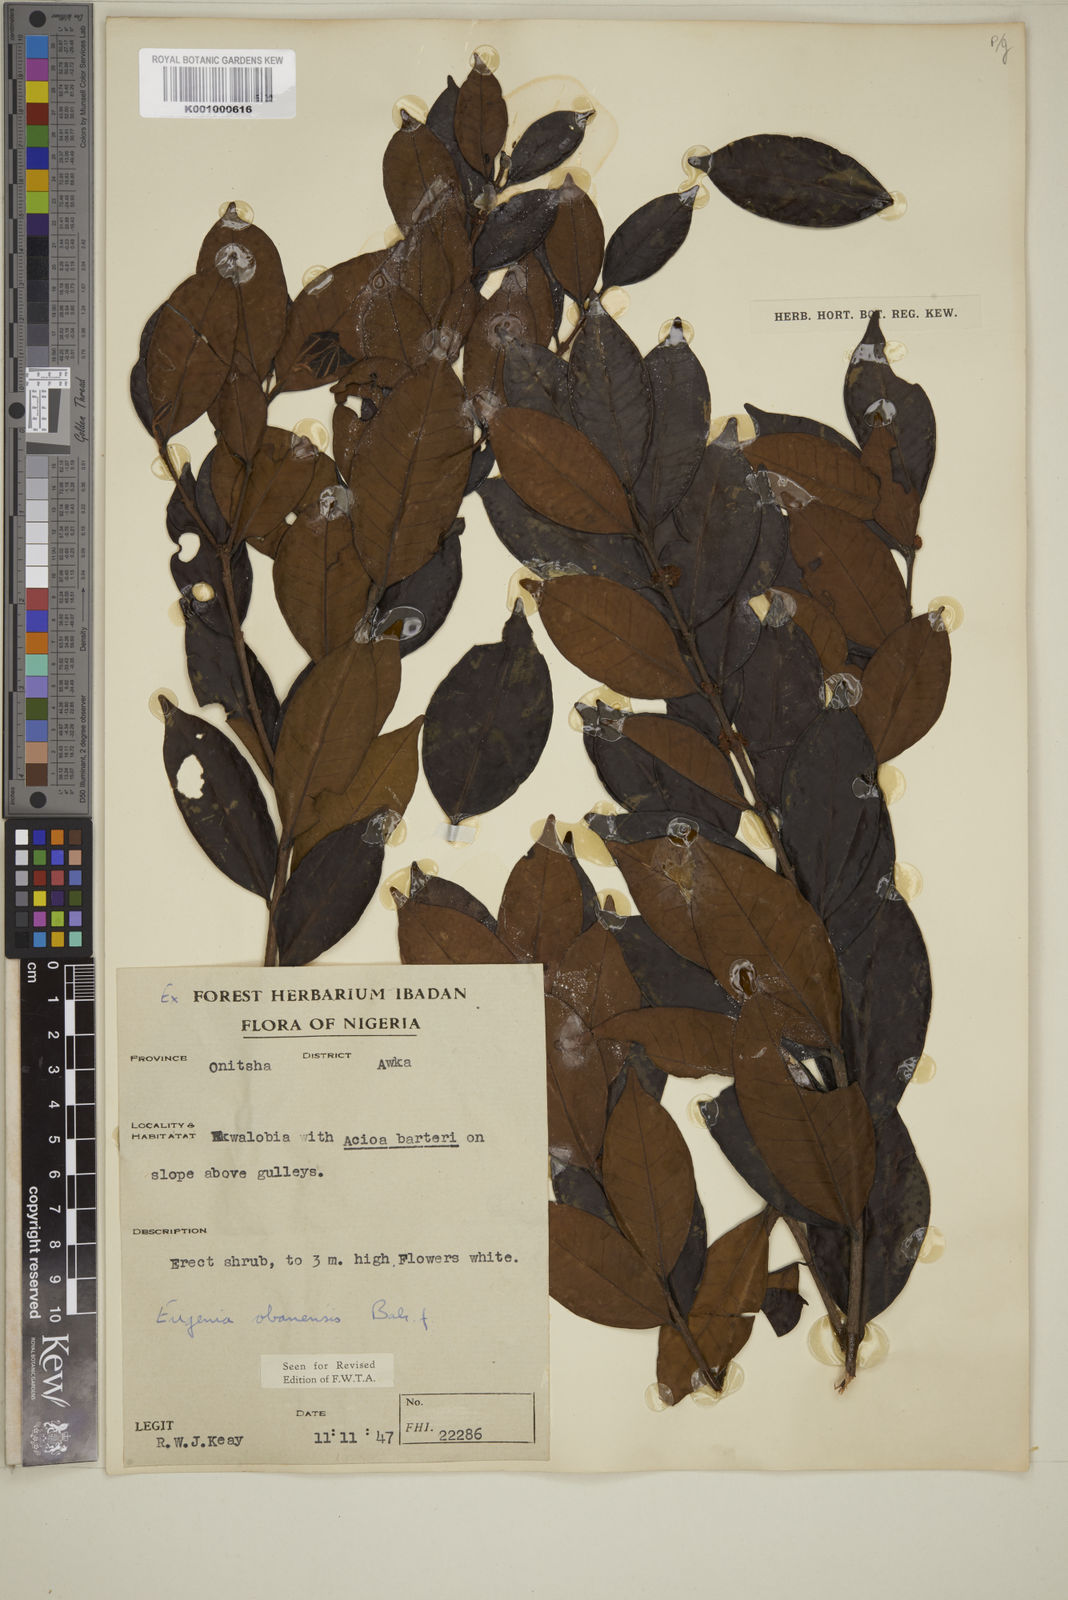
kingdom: Plantae
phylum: Tracheophyta
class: Magnoliopsida
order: Myrtales
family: Myrtaceae
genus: Eugenia
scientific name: Eugenia obanensis
